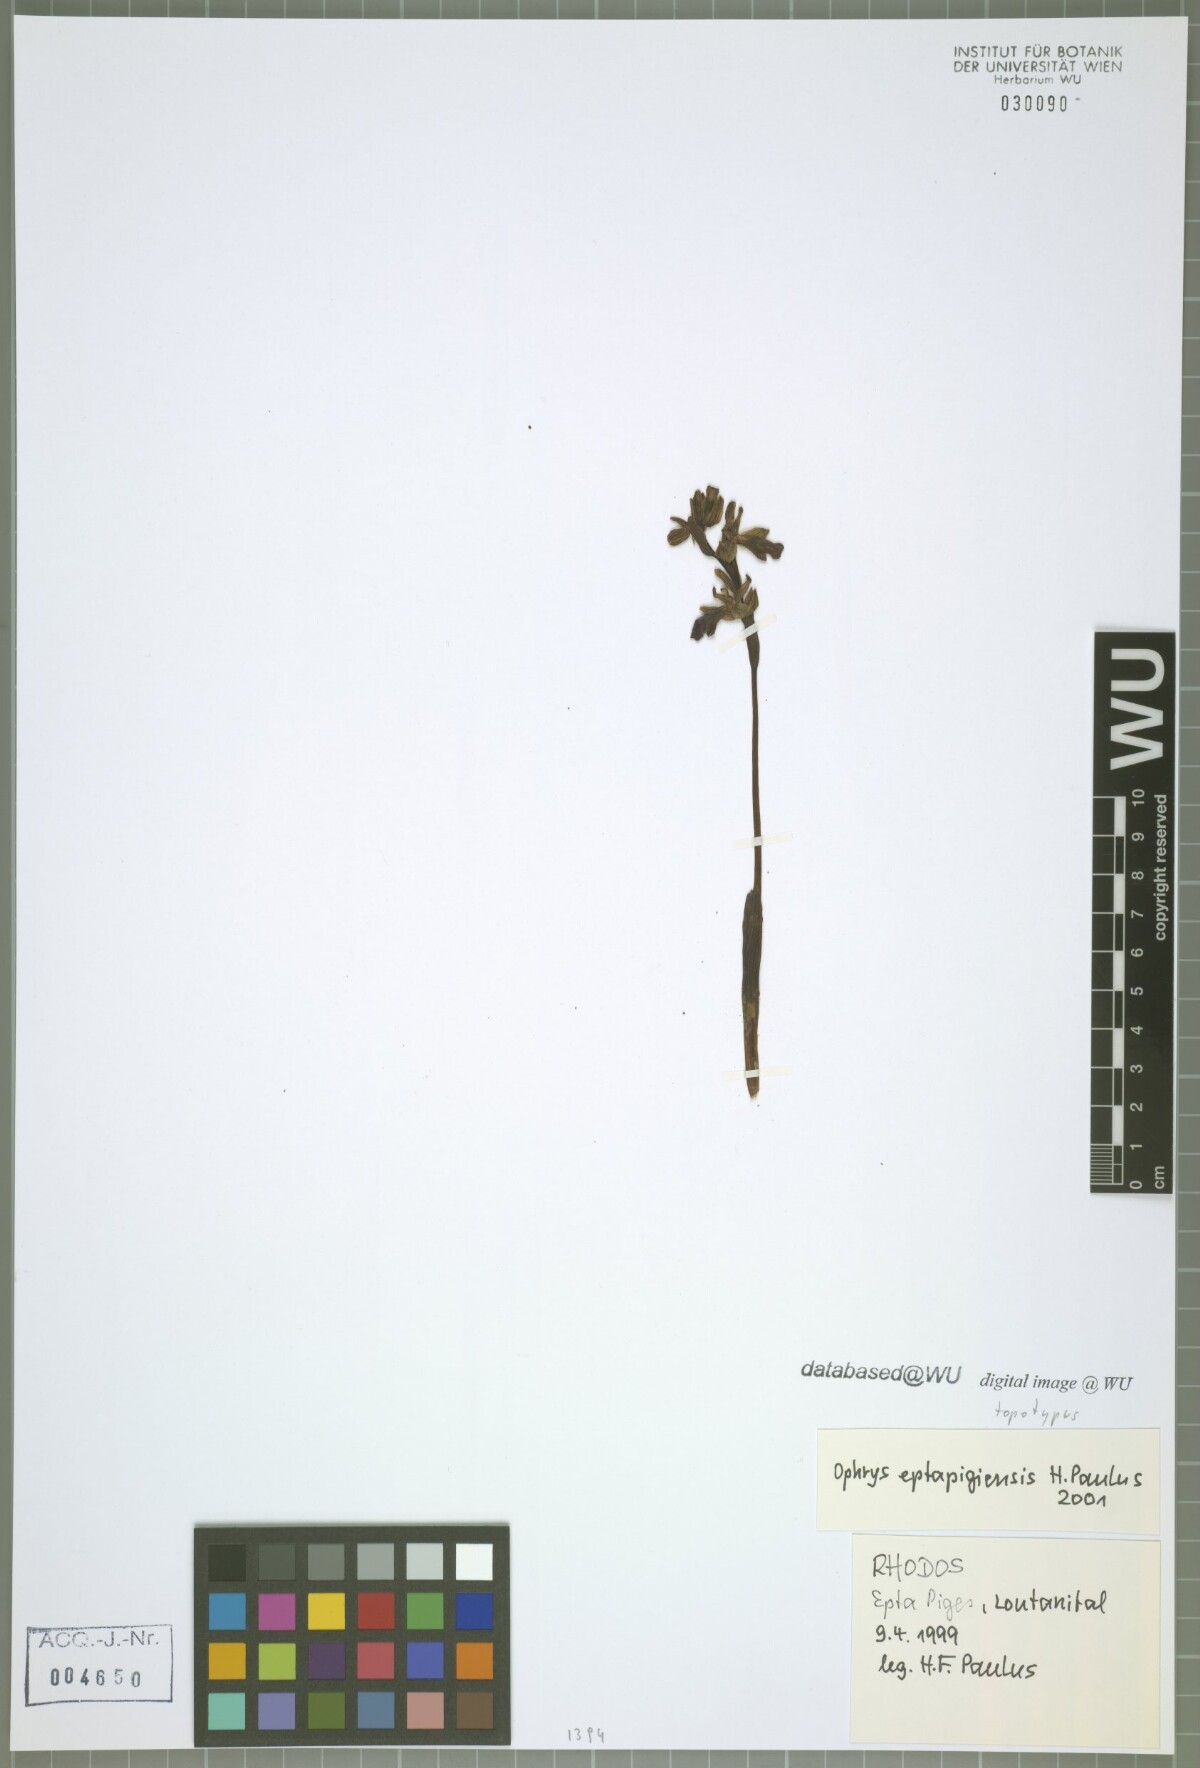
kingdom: Plantae
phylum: Tracheophyta
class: Liliopsida
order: Asparagales
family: Orchidaceae
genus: Ophrys
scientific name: Ophrys fusca
